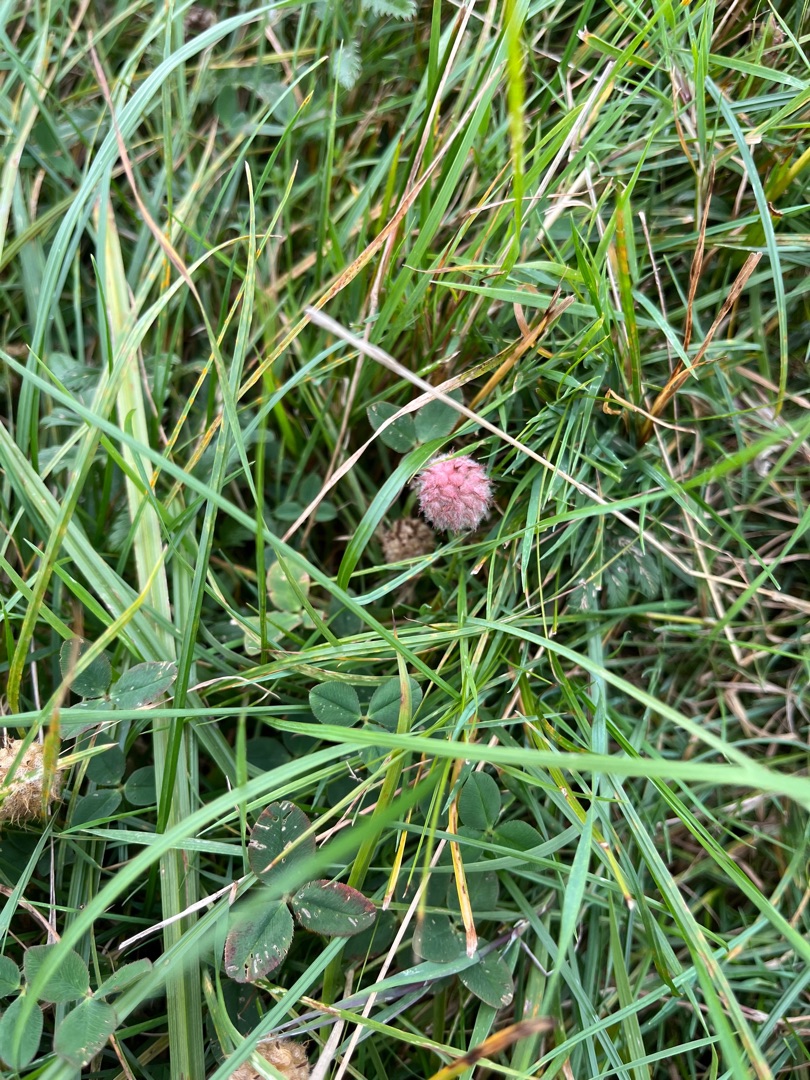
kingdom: Plantae
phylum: Tracheophyta
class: Magnoliopsida
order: Fabales
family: Fabaceae
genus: Trifolium
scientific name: Trifolium fragiferum
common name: Jordbær-kløver
